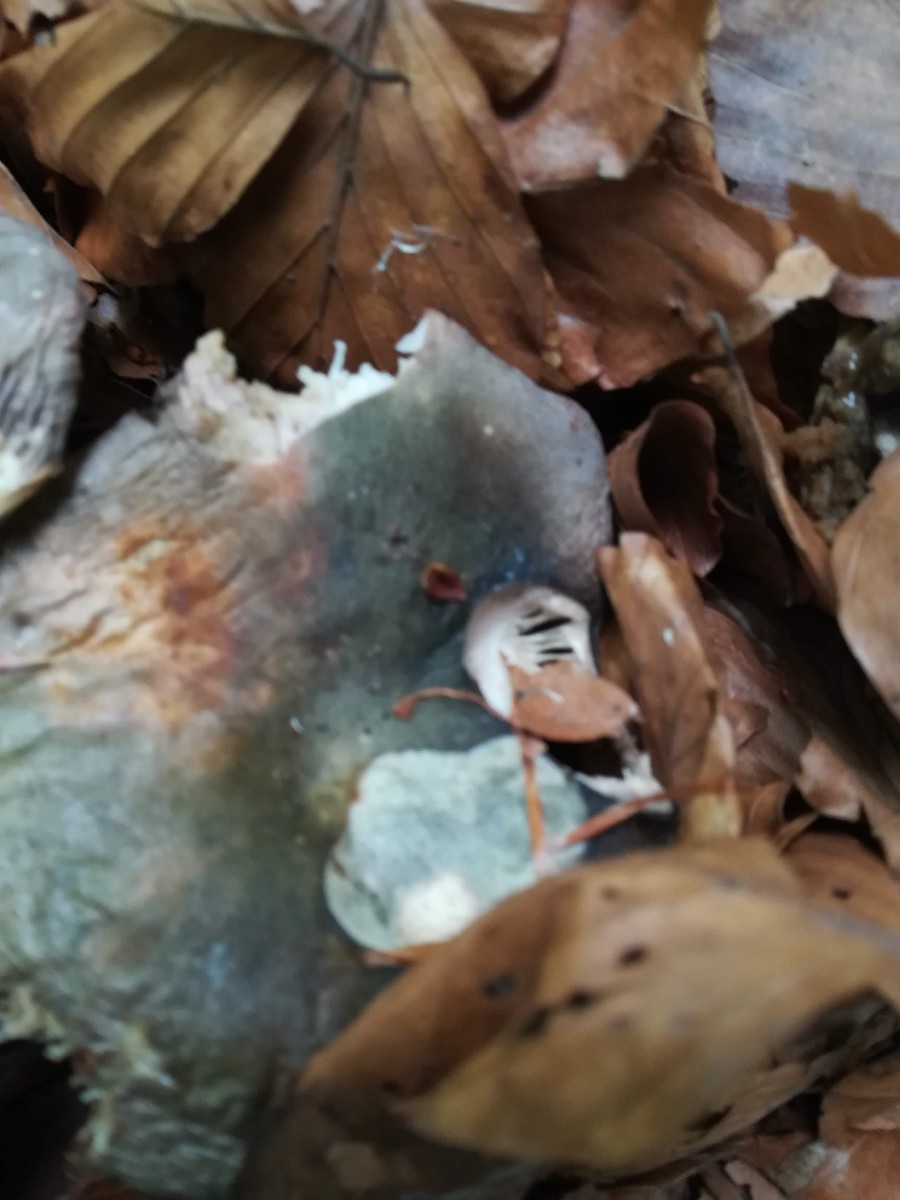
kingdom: Fungi
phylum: Basidiomycota
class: Agaricomycetes
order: Russulales
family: Russulaceae
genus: Russula
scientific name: Russula cyanoxantha
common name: broget skørhat
